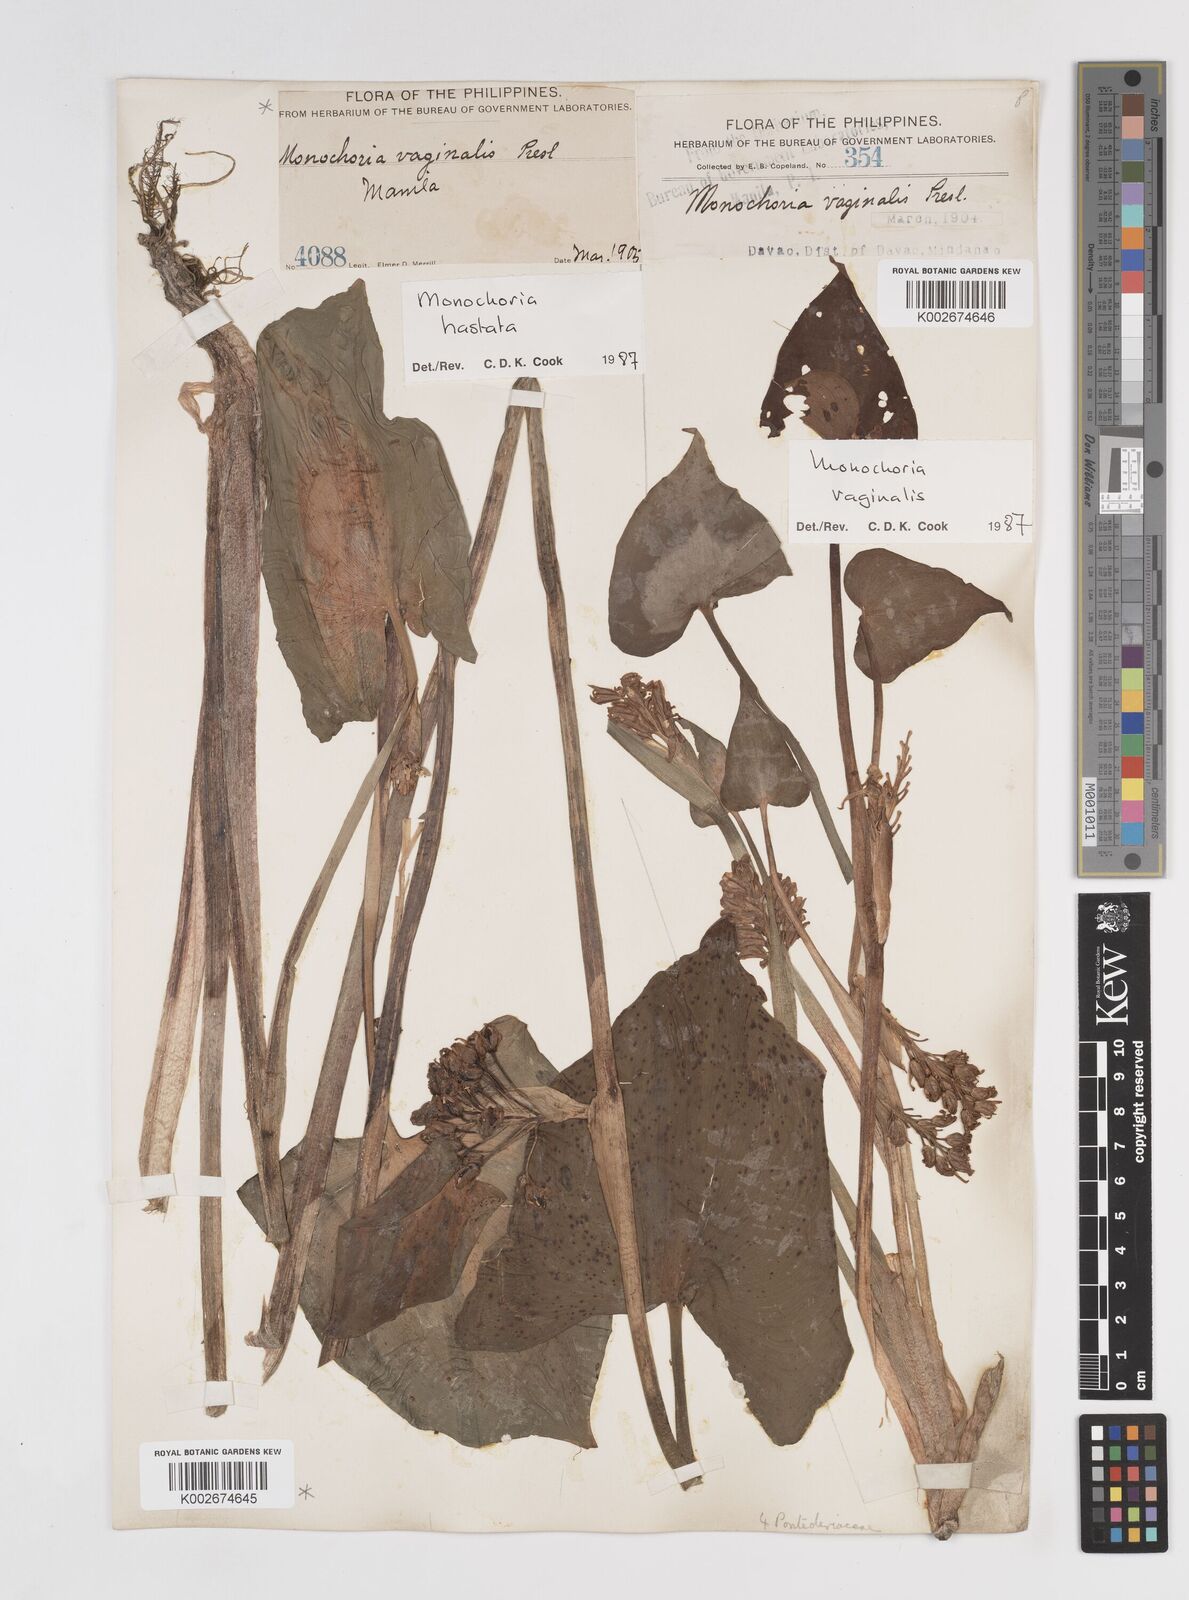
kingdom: Plantae
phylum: Tracheophyta
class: Liliopsida
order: Commelinales
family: Pontederiaceae
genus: Pontederia
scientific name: Pontederia hastata
